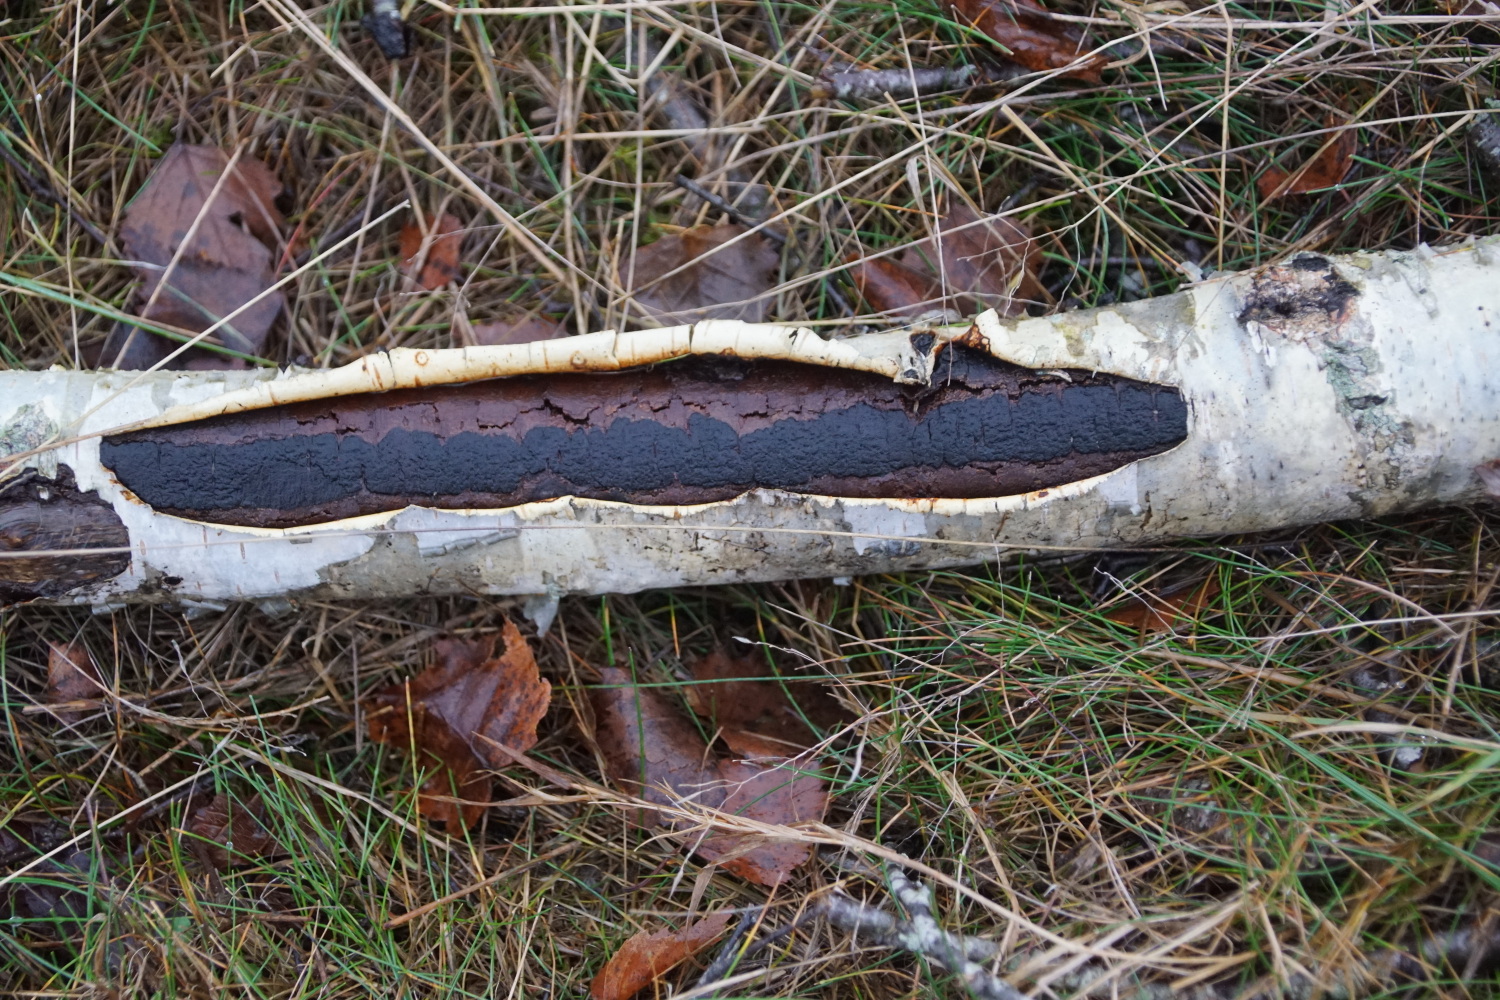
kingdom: Fungi
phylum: Ascomycota
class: Sordariomycetes
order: Xylariales
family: Diatrypaceae
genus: Diatrype
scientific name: Diatrype
